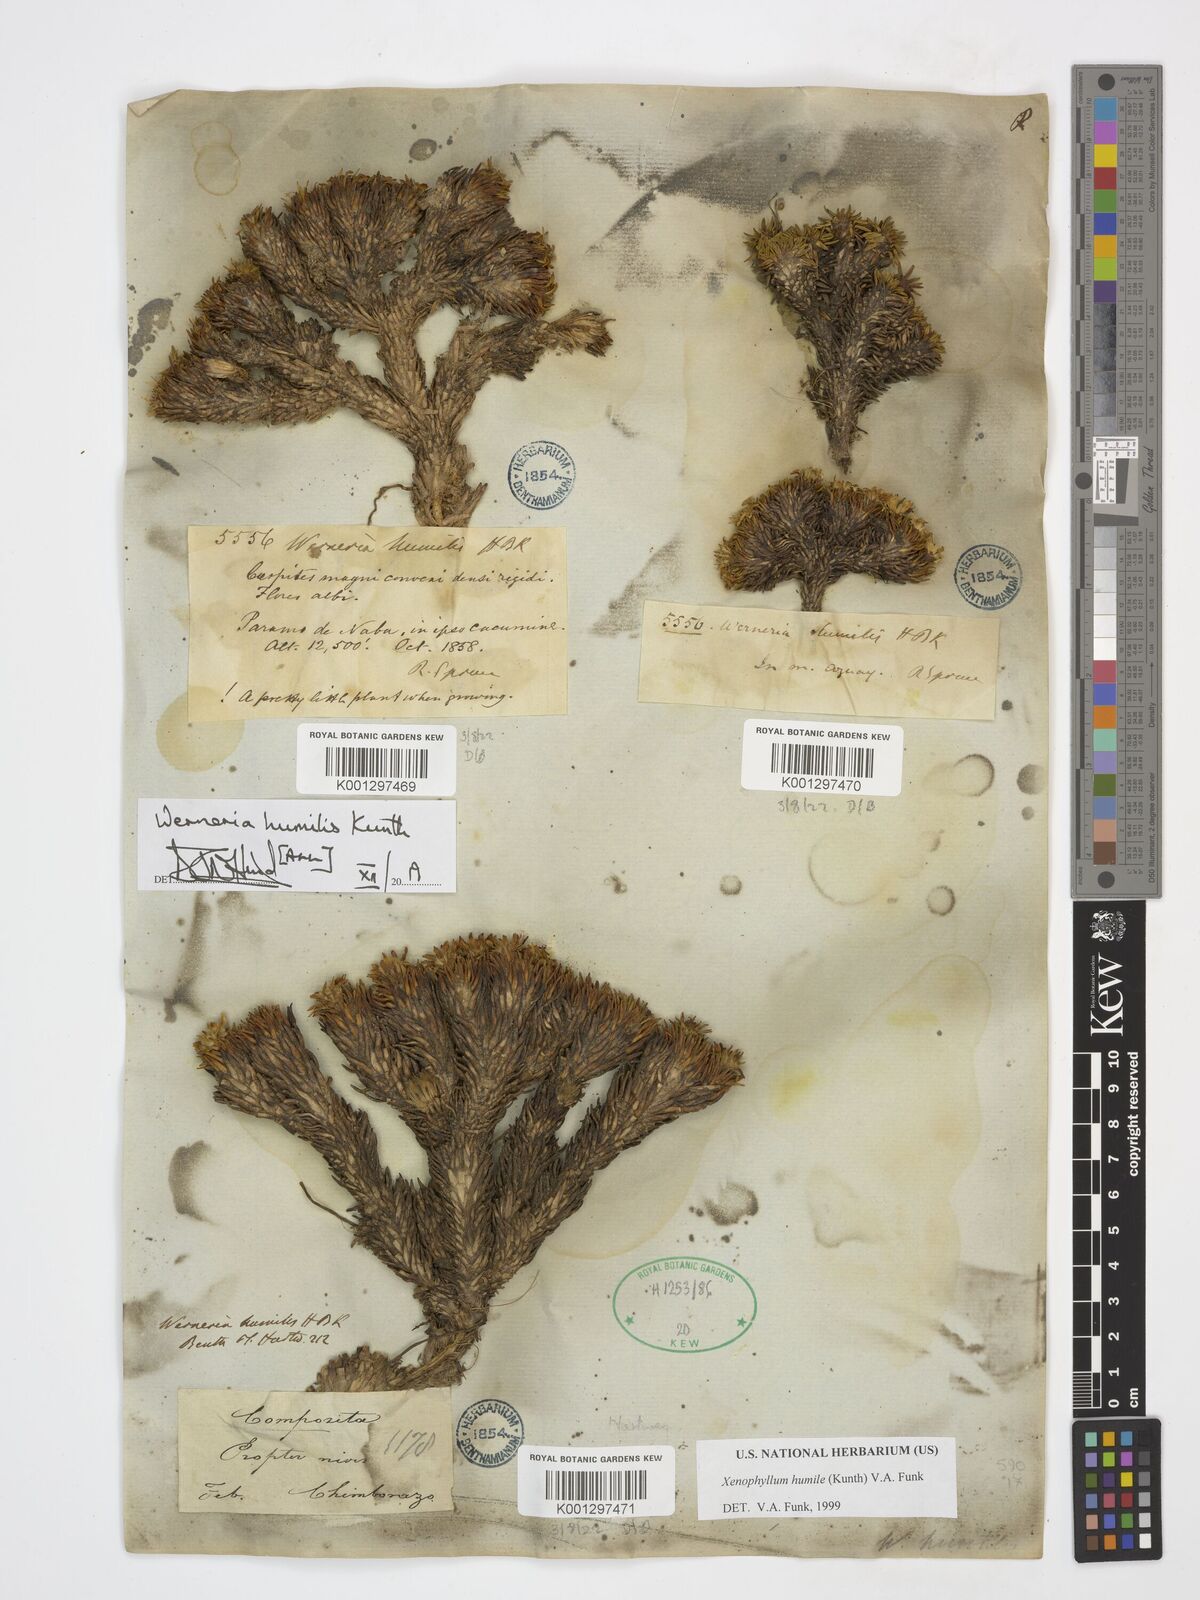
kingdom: Plantae
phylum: Tracheophyta
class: Magnoliopsida
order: Asterales
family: Asteraceae
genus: Werneria
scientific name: Werneria humilis
